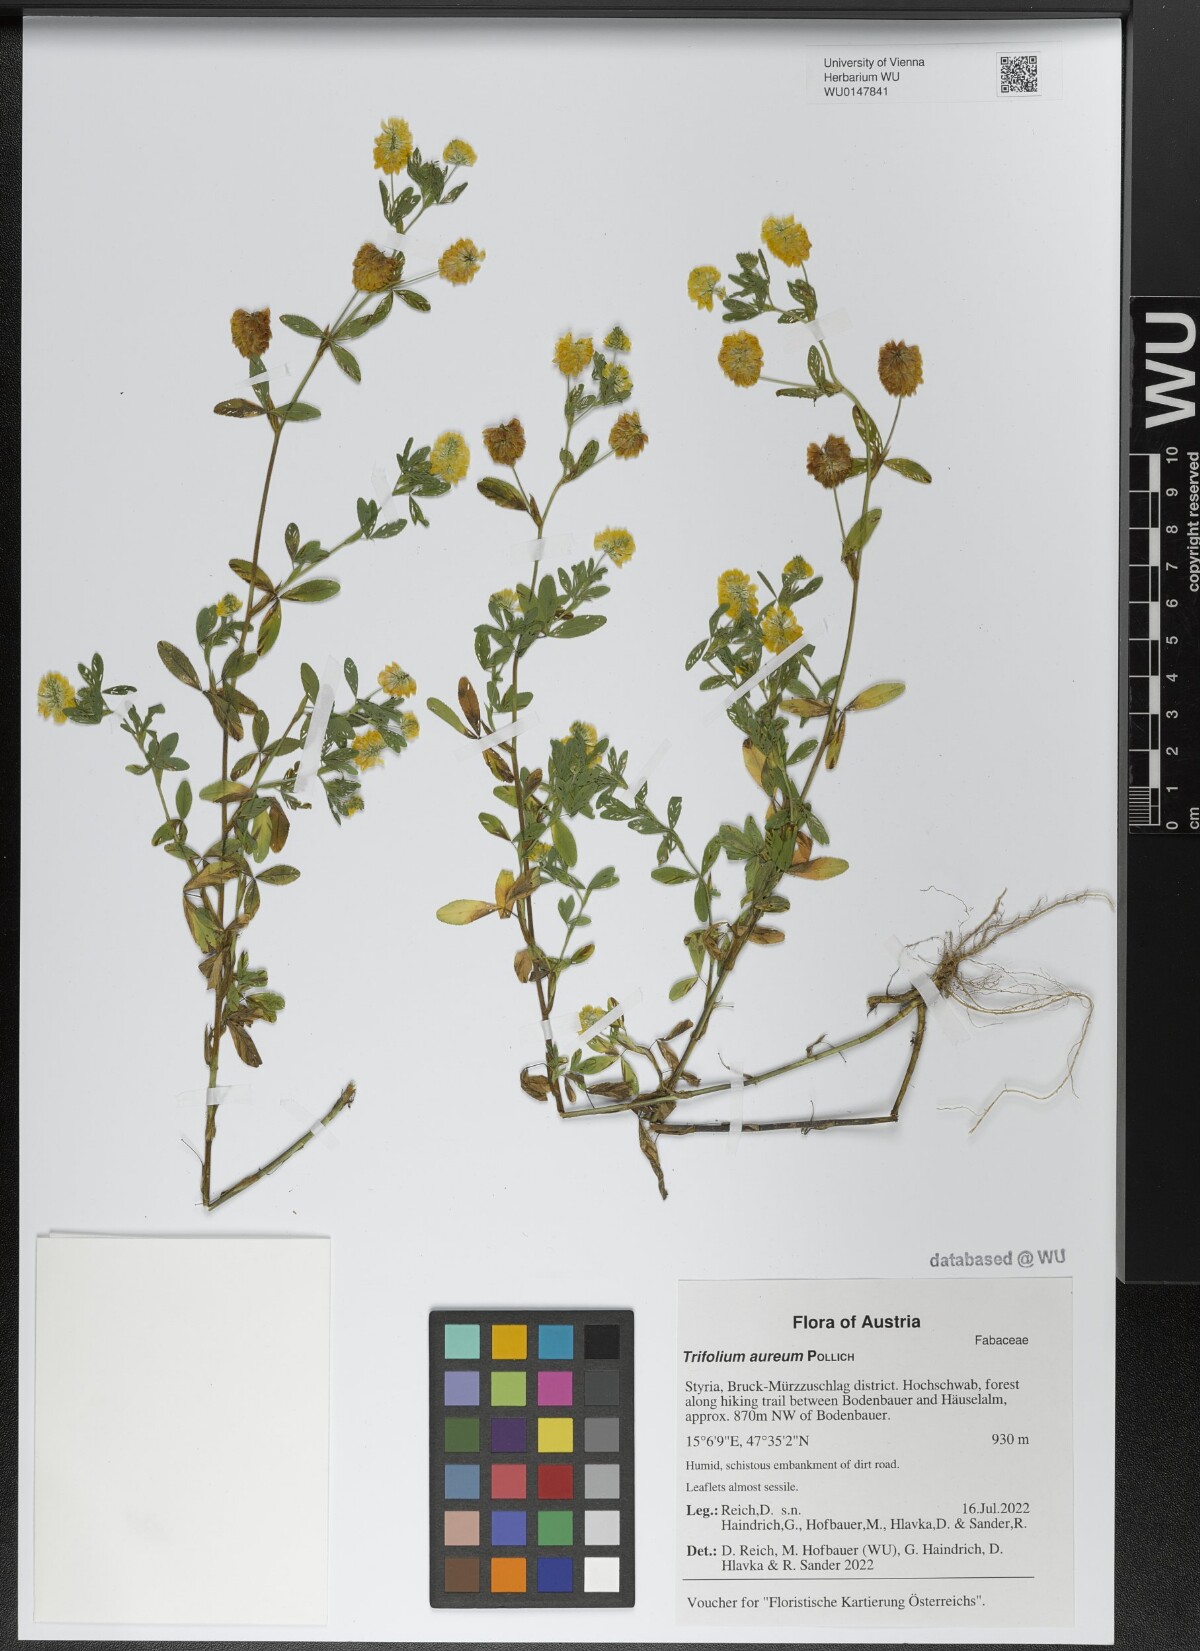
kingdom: Plantae
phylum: Tracheophyta
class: Magnoliopsida
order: Fabales
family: Fabaceae
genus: Trifolium
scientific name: Trifolium aureum
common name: Golden clover
